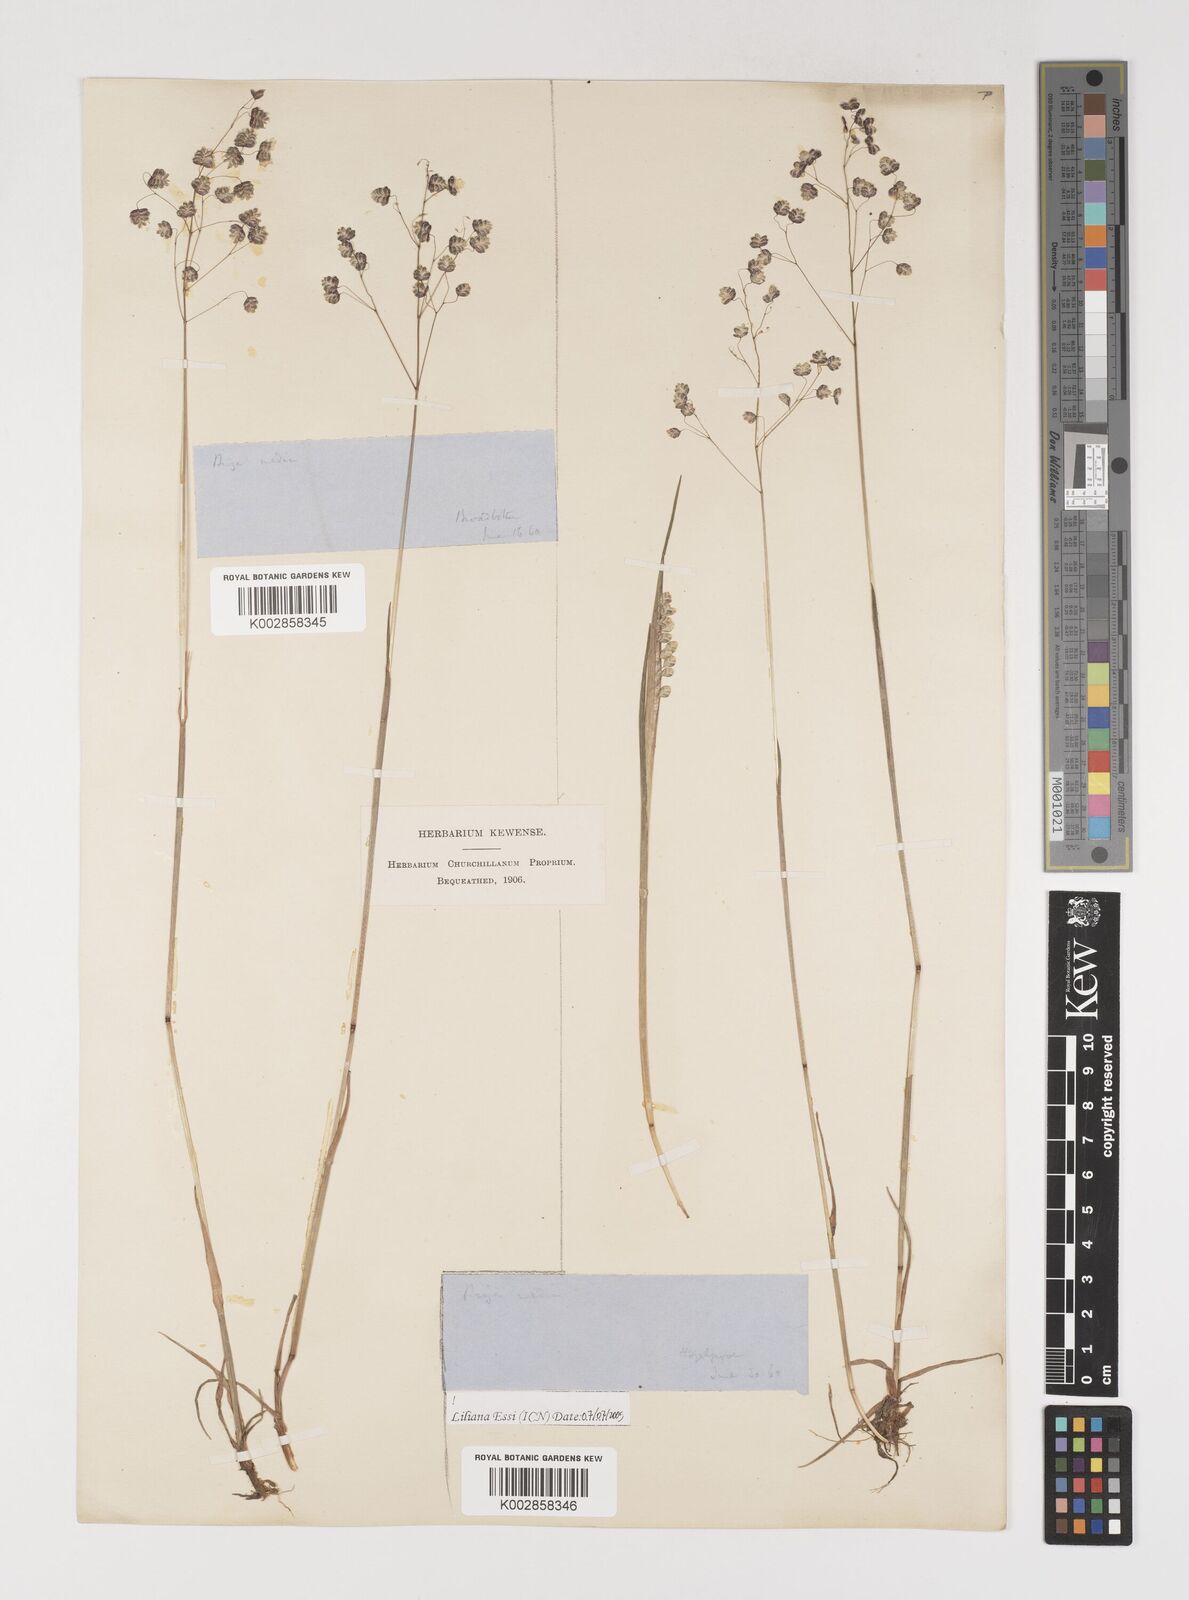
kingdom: Plantae
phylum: Tracheophyta
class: Liliopsida
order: Poales
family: Poaceae
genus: Briza
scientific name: Briza media
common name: Quaking grass
